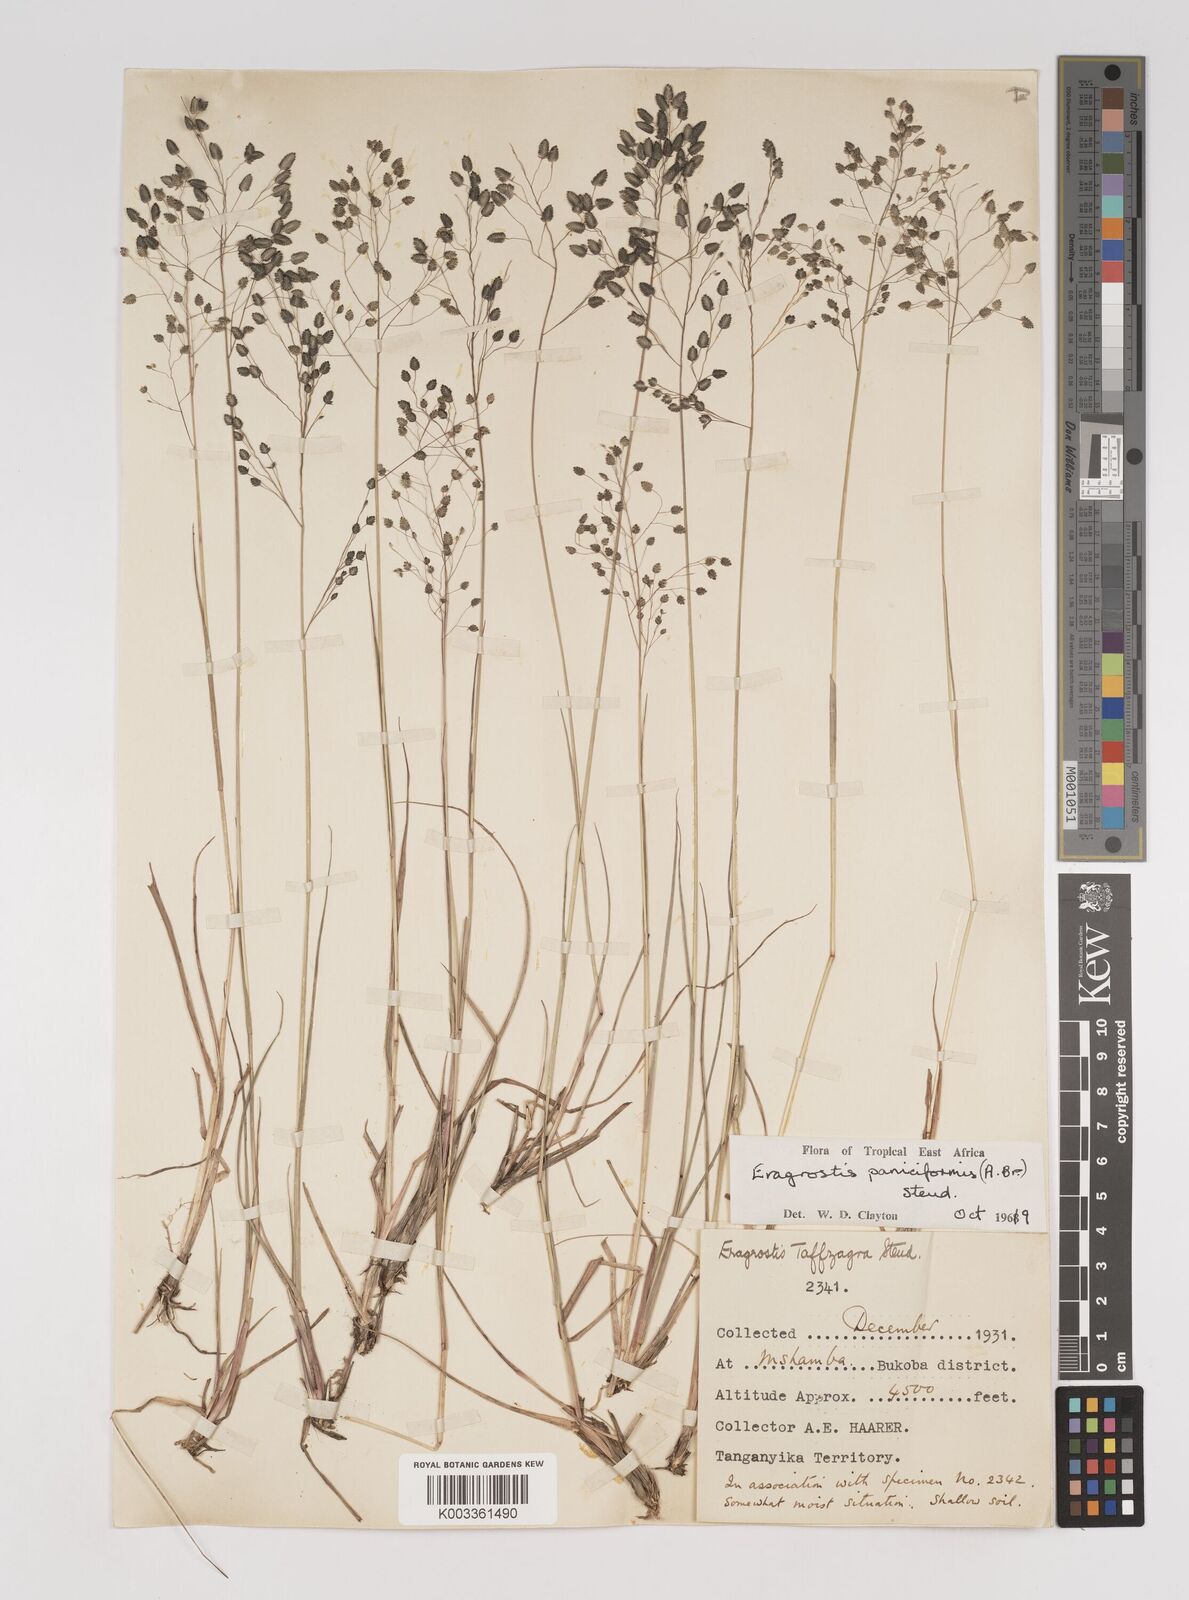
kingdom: Plantae
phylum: Tracheophyta
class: Liliopsida
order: Poales
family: Poaceae
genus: Eragrostis
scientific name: Eragrostis paniciformis
